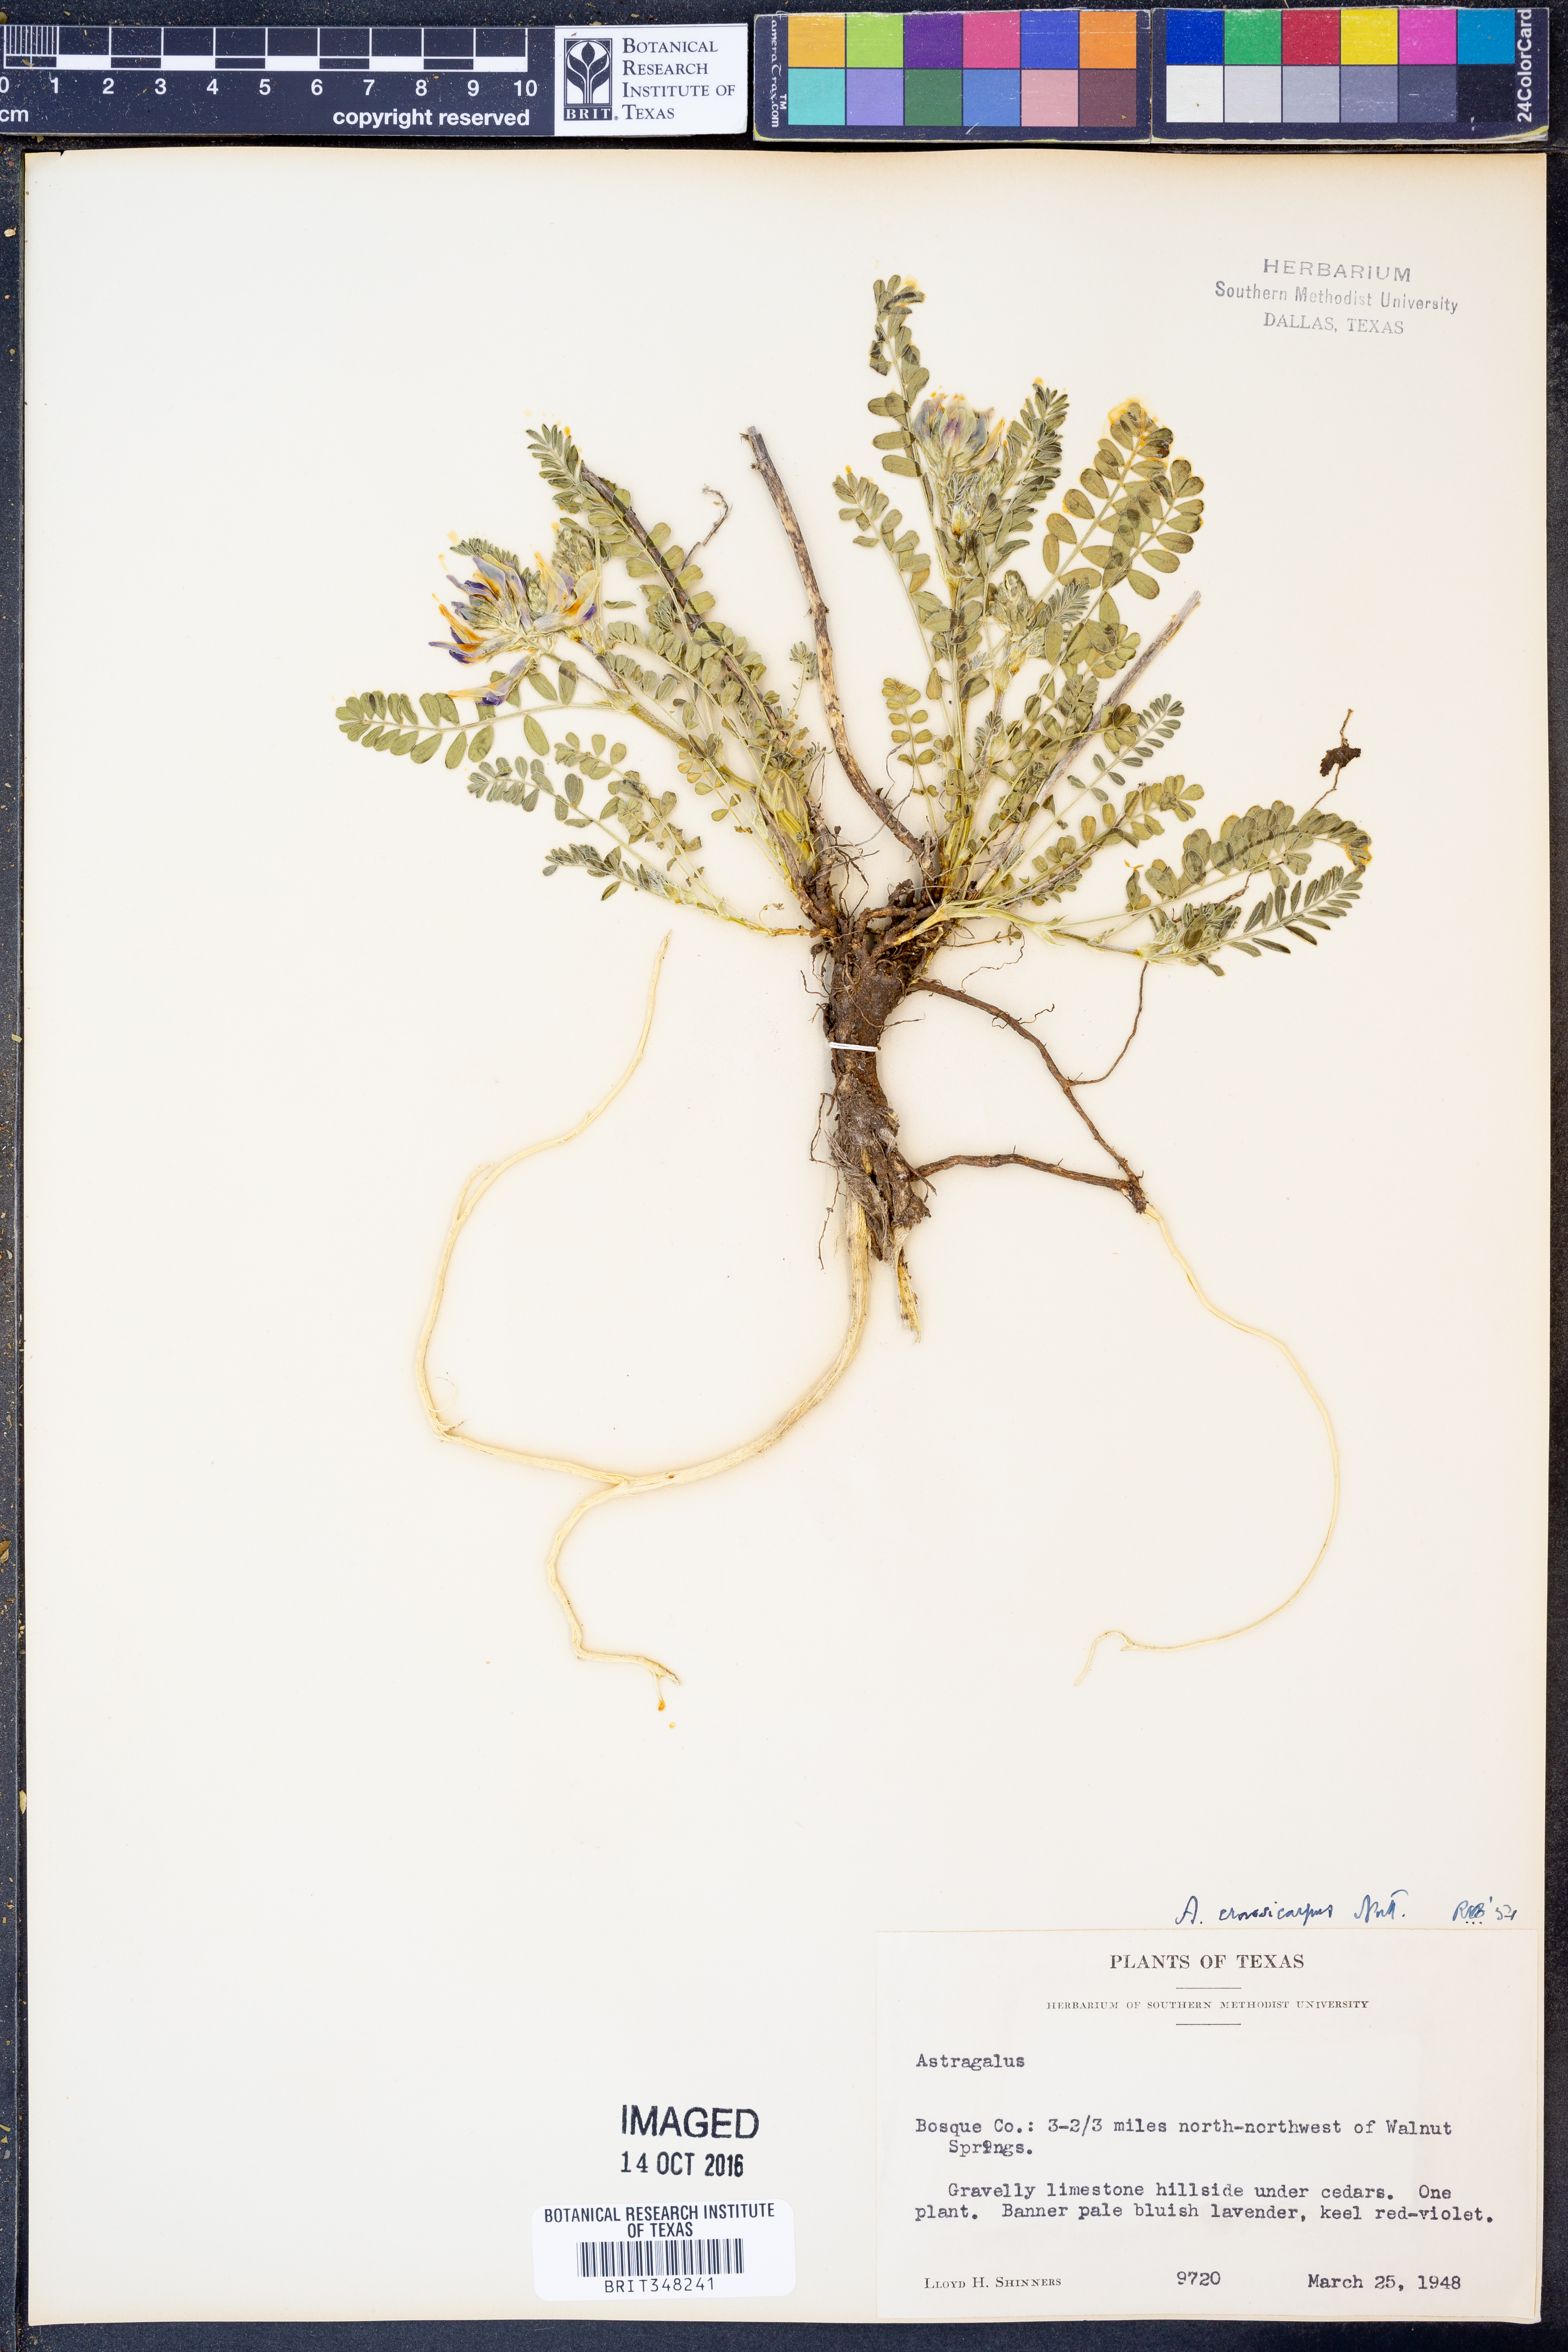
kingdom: Plantae
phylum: Tracheophyta
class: Magnoliopsida
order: Fabales
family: Fabaceae
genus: Astragalus
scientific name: Astragalus crassicarpus
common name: Ground-plum milk-vetch
